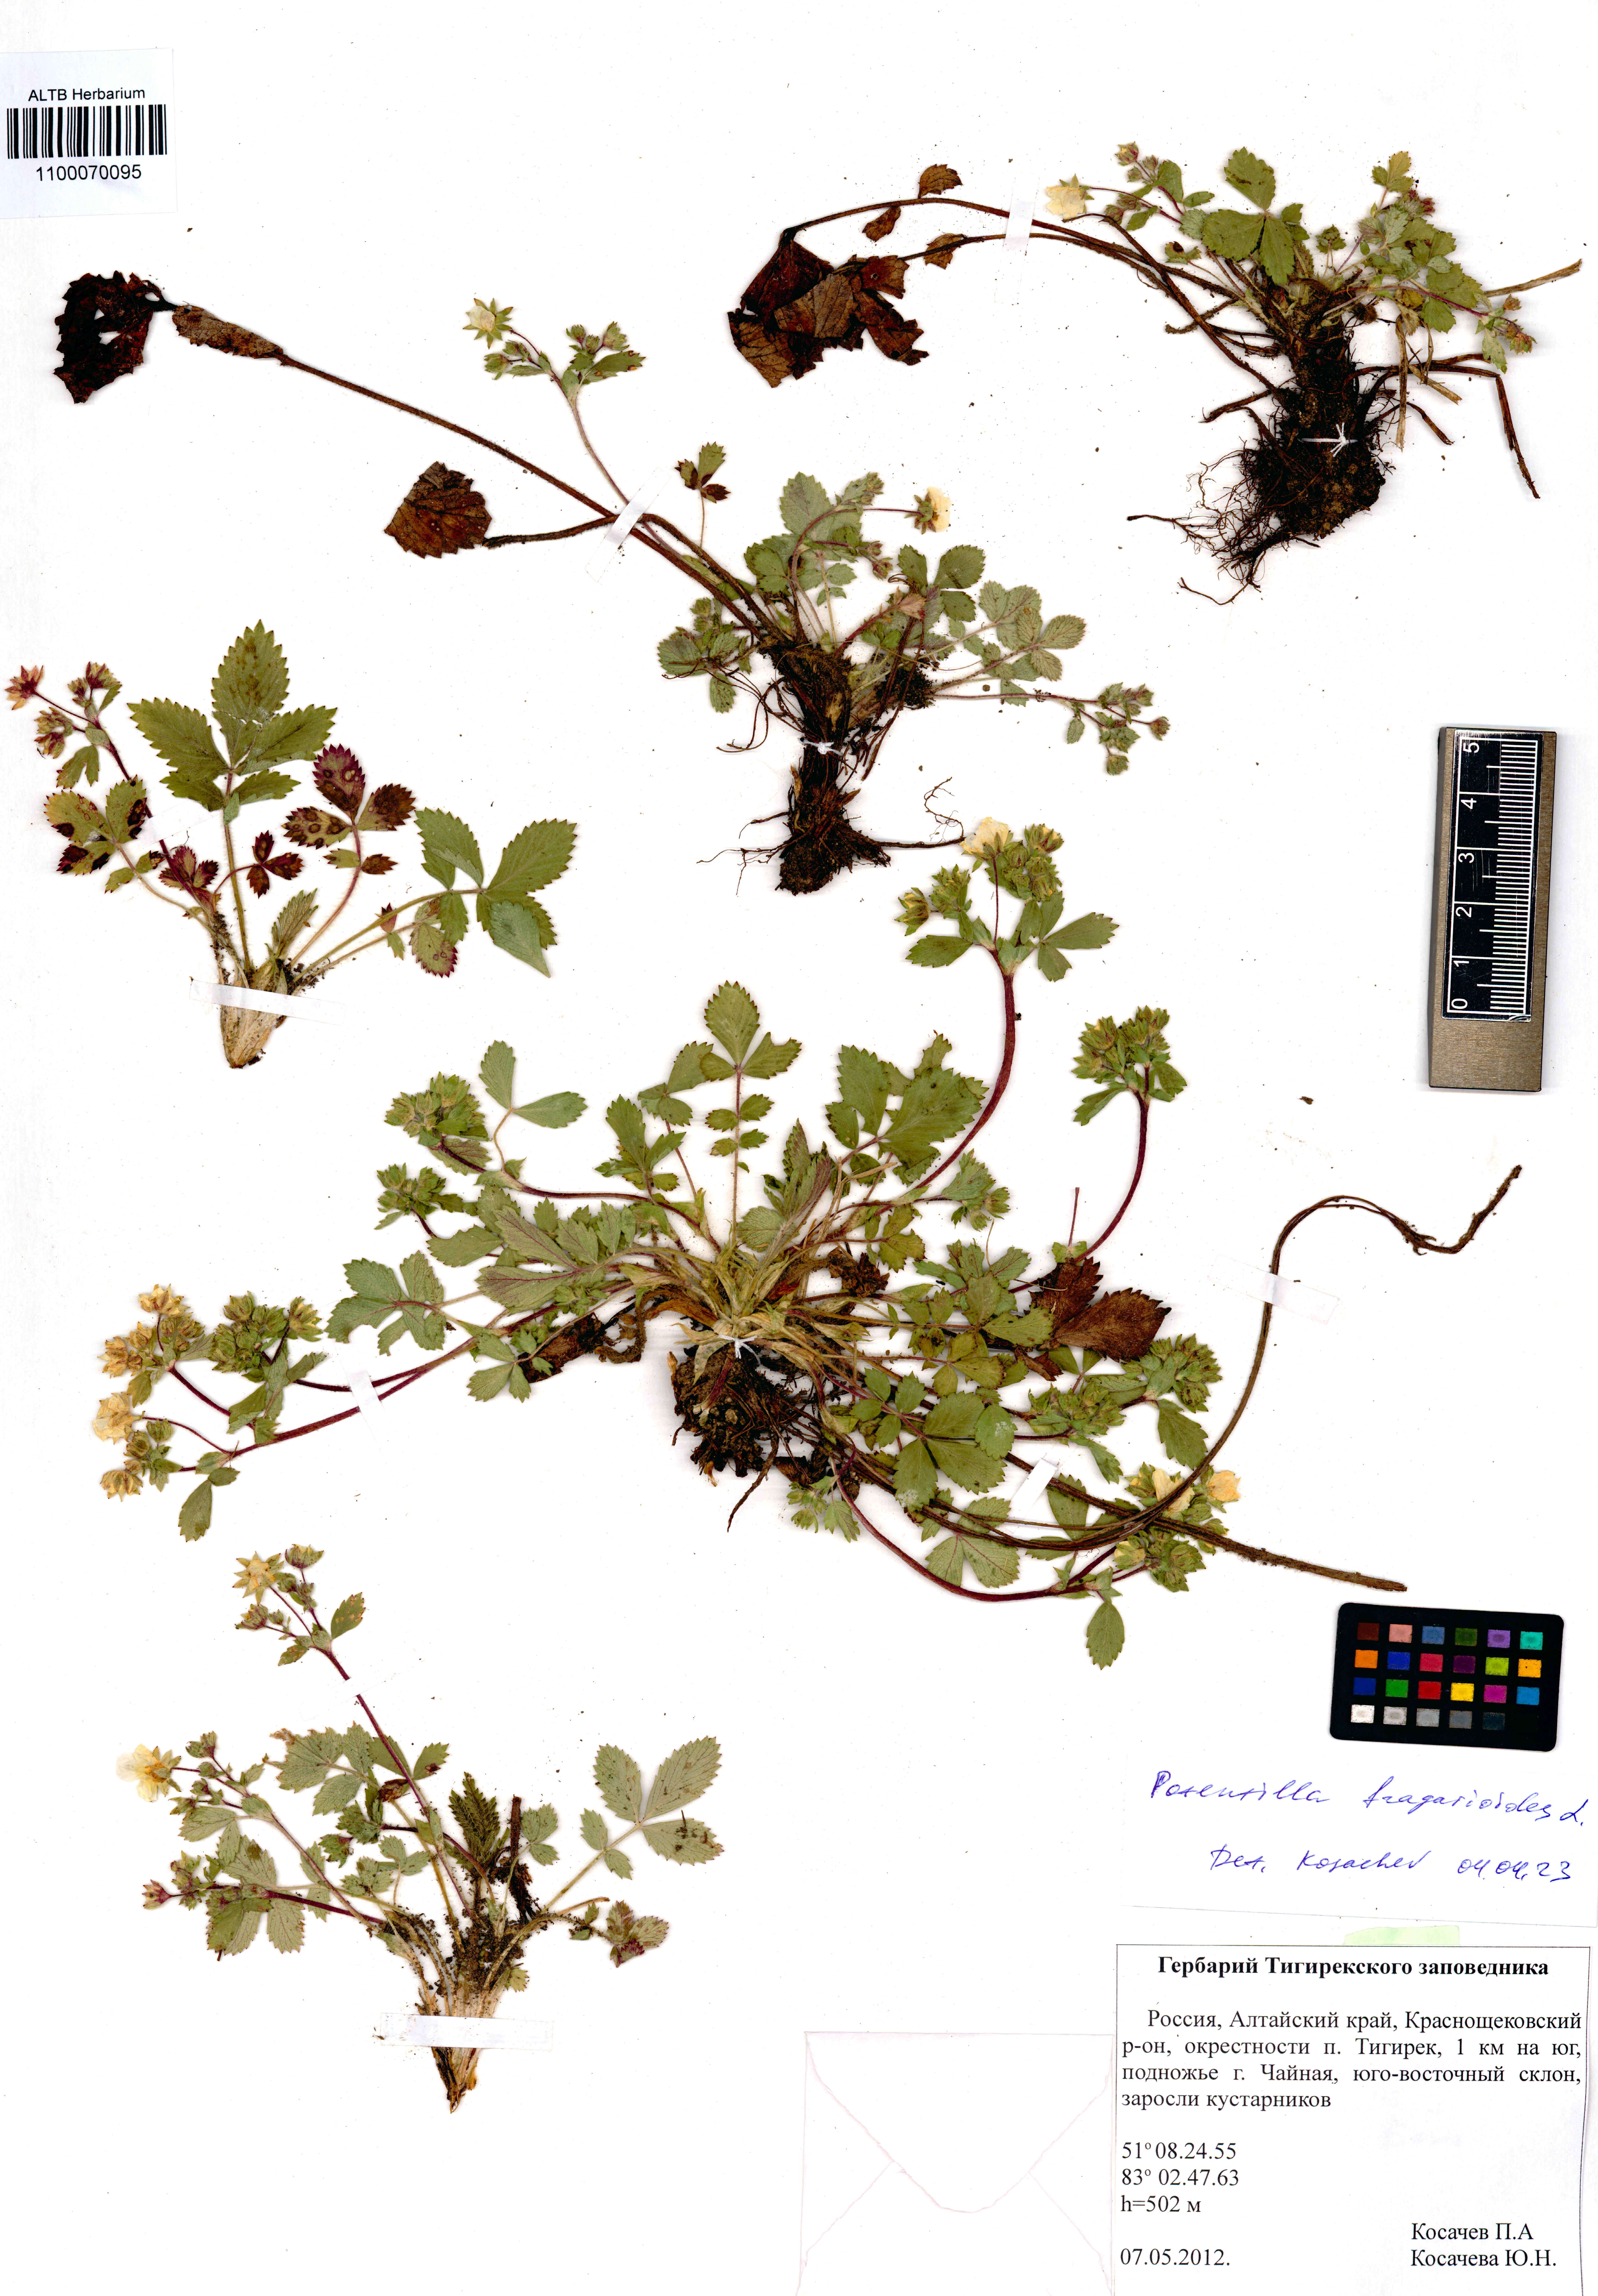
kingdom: Plantae
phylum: Tracheophyta
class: Magnoliopsida
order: Rosales
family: Rosaceae
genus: Potentilla
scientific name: Potentilla fragarioides
